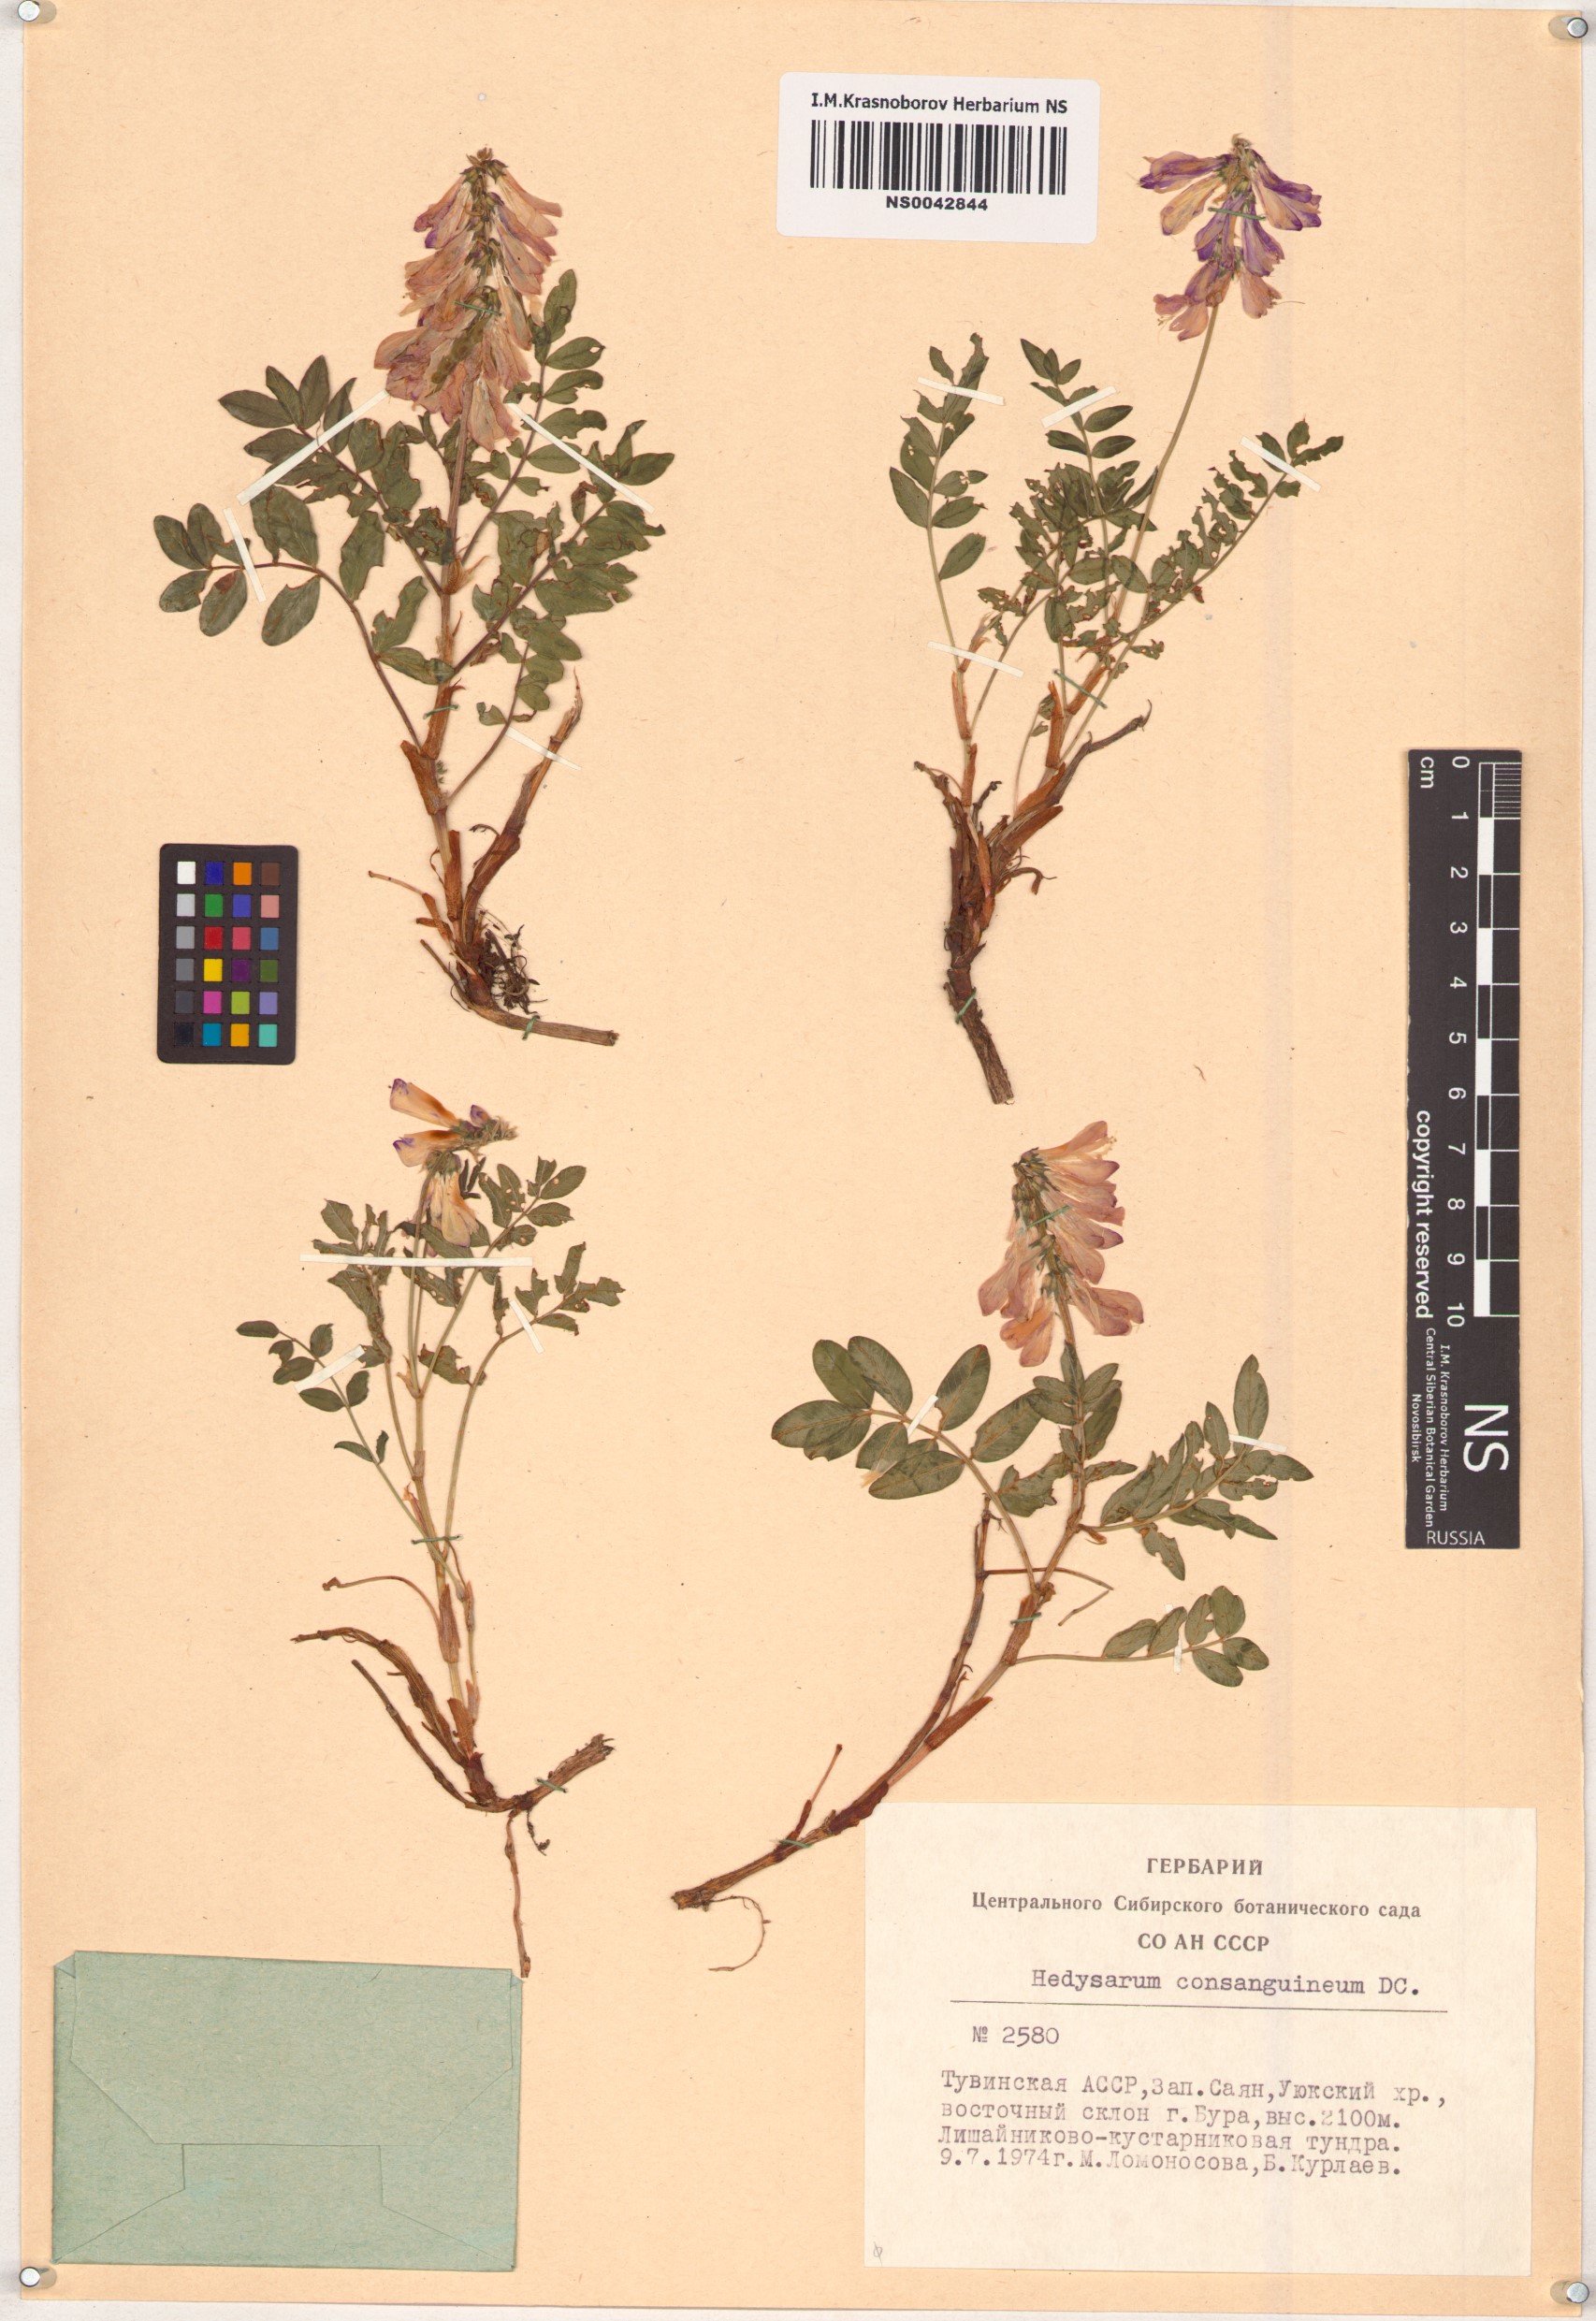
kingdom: Plantae
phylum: Tracheophyta
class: Magnoliopsida
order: Fabales
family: Fabaceae
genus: Hedysarum
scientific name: Hedysarum consanguineum
